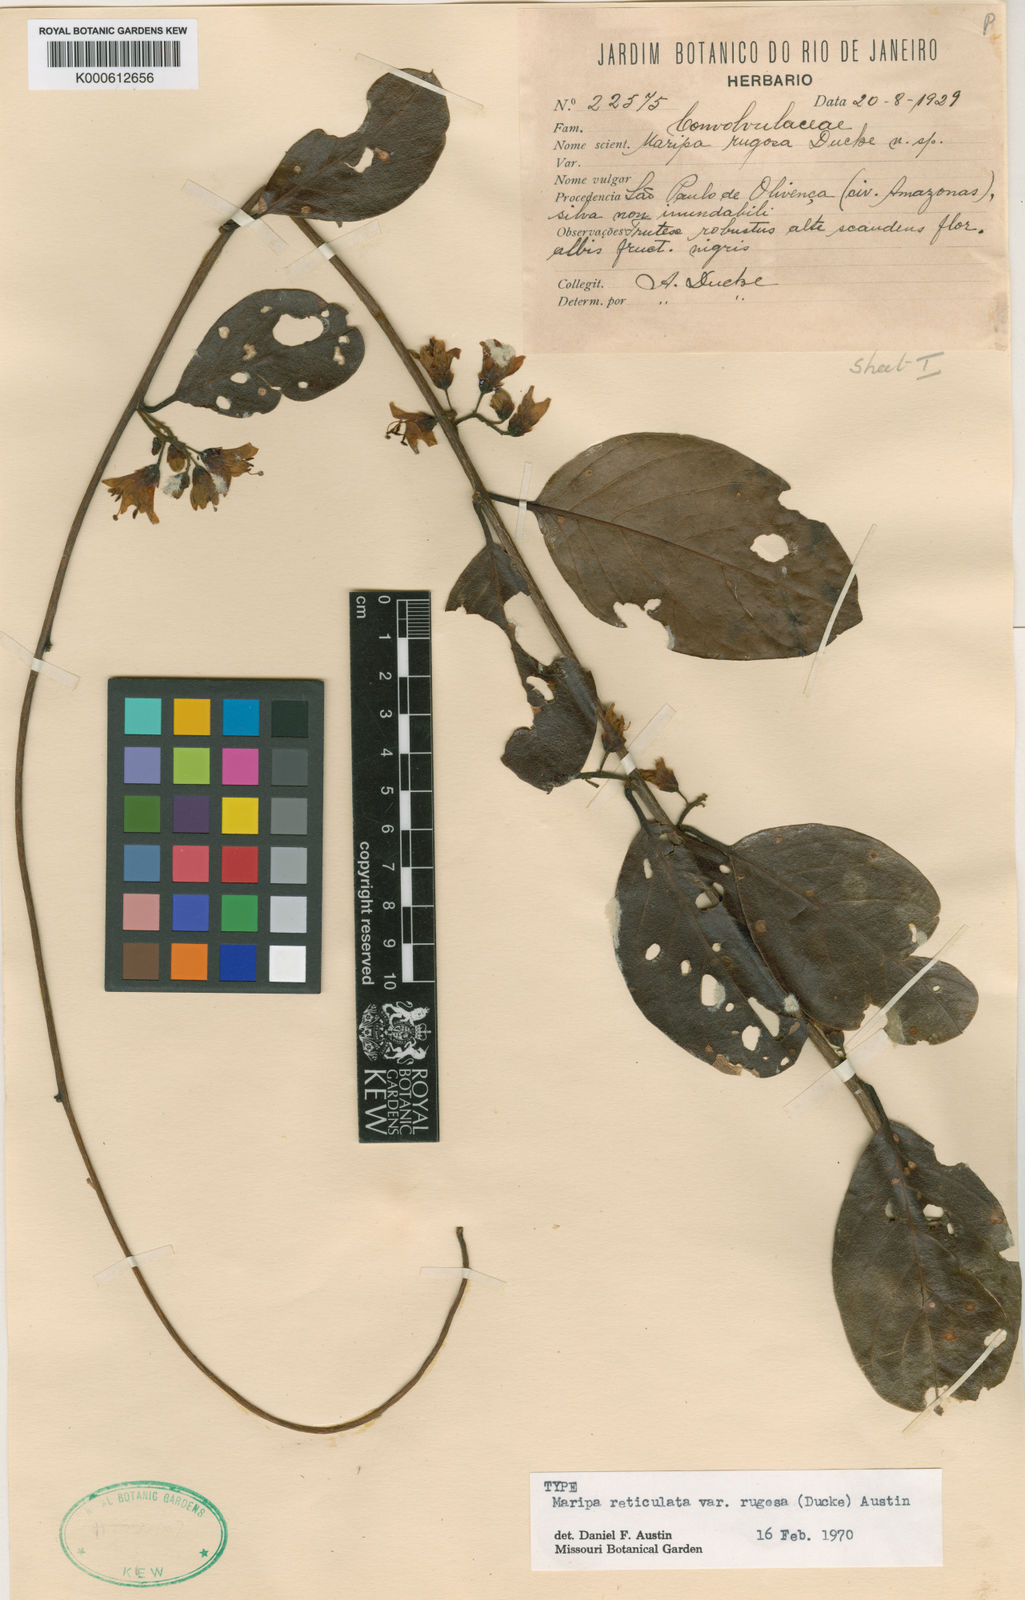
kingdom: Plantae
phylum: Tracheophyta
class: Magnoliopsida
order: Solanales
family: Convolvulaceae
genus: Maripa
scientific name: Maripa reticulata
